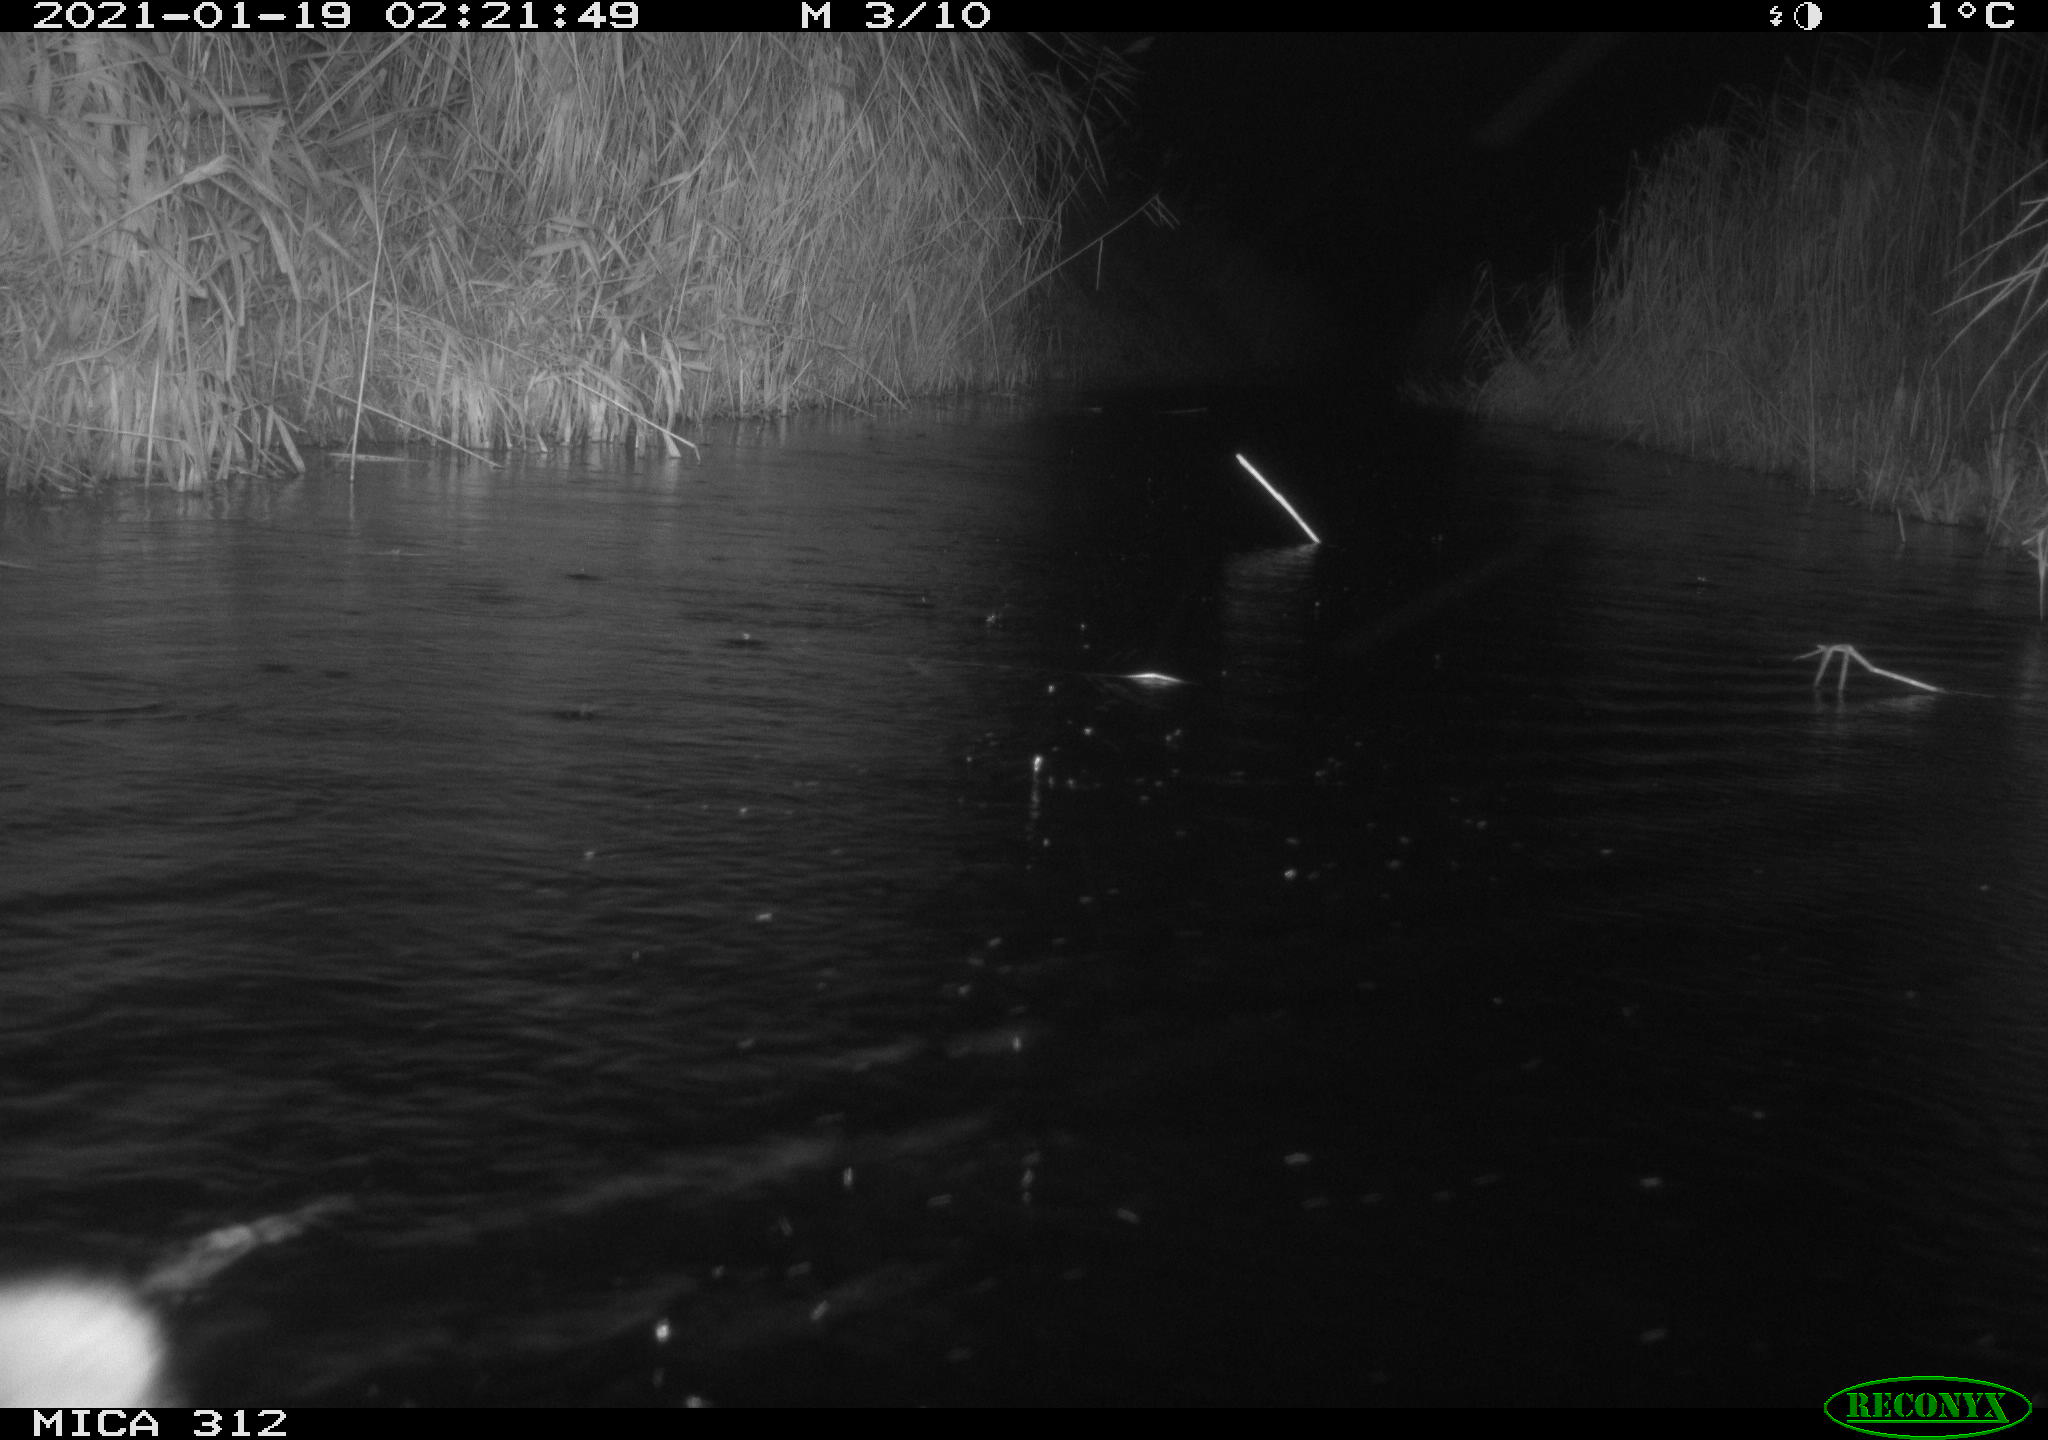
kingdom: Animalia
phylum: Chordata
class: Mammalia
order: Rodentia
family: Muridae
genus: Rattus
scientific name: Rattus norvegicus
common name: Brown rat
